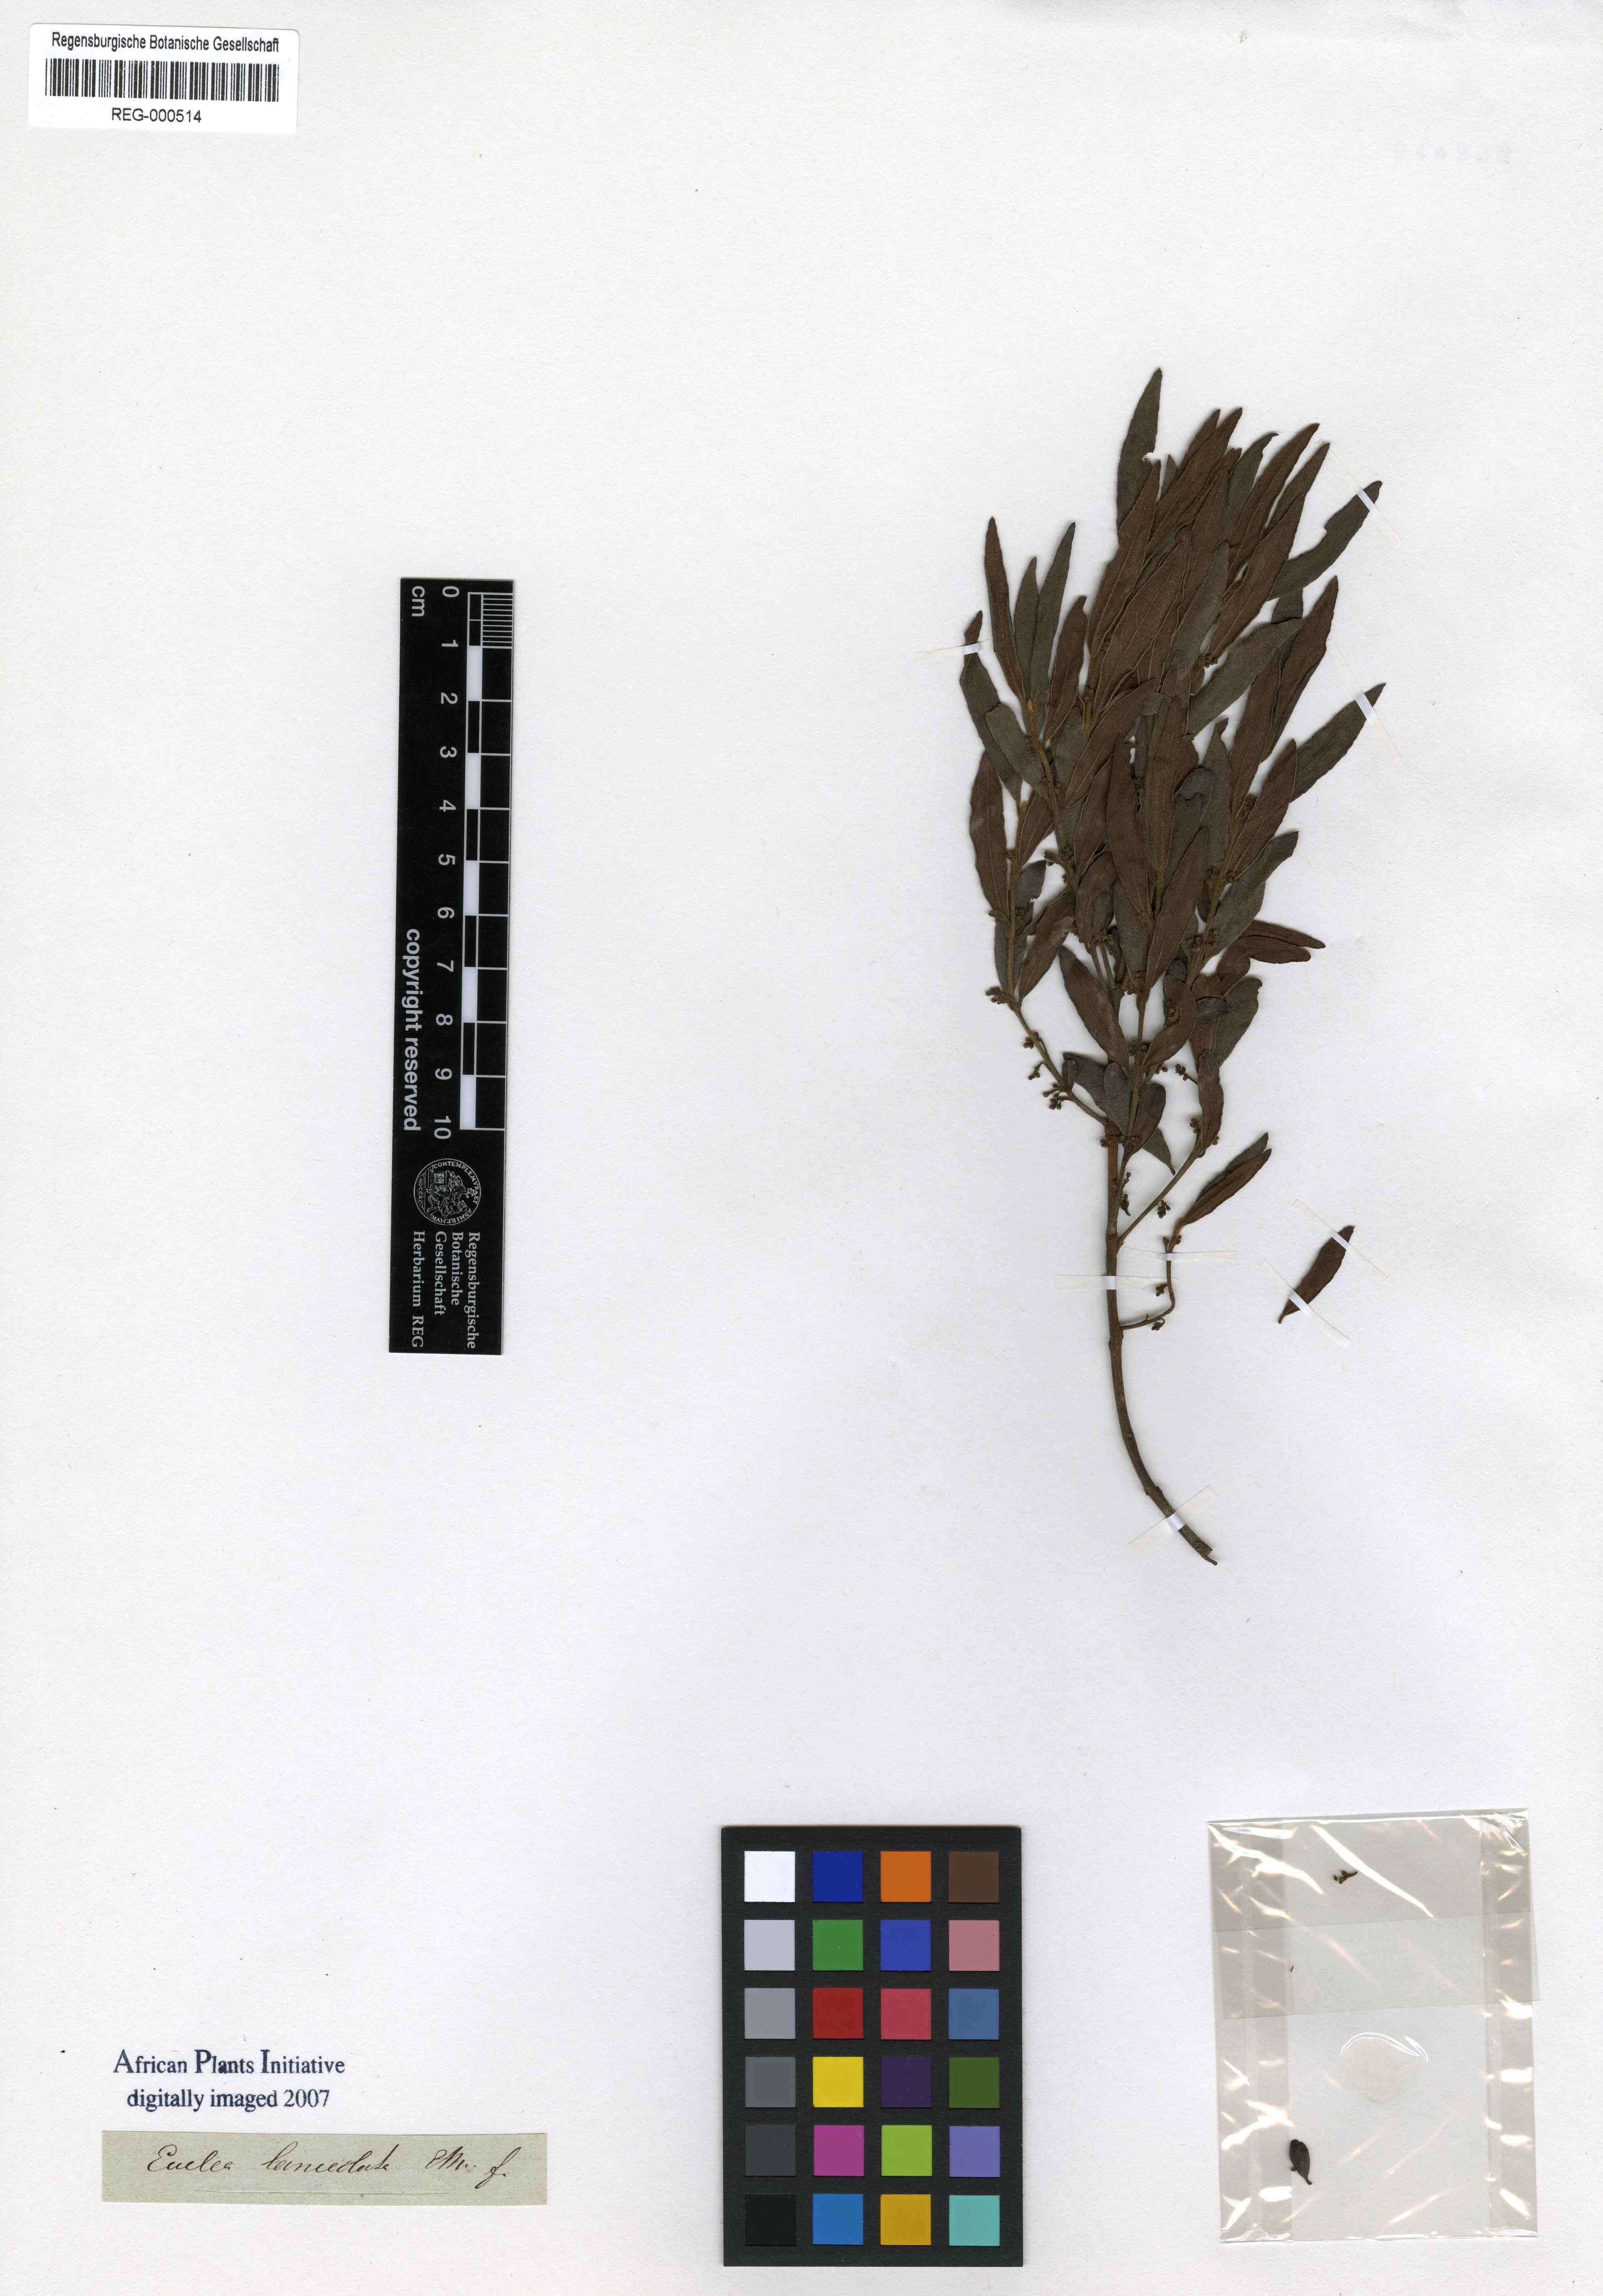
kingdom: Plantae
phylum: Tracheophyta
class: Magnoliopsida
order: Ericales
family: Ebenaceae
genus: Euclea
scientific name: Euclea crispa
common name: Blue guarri
